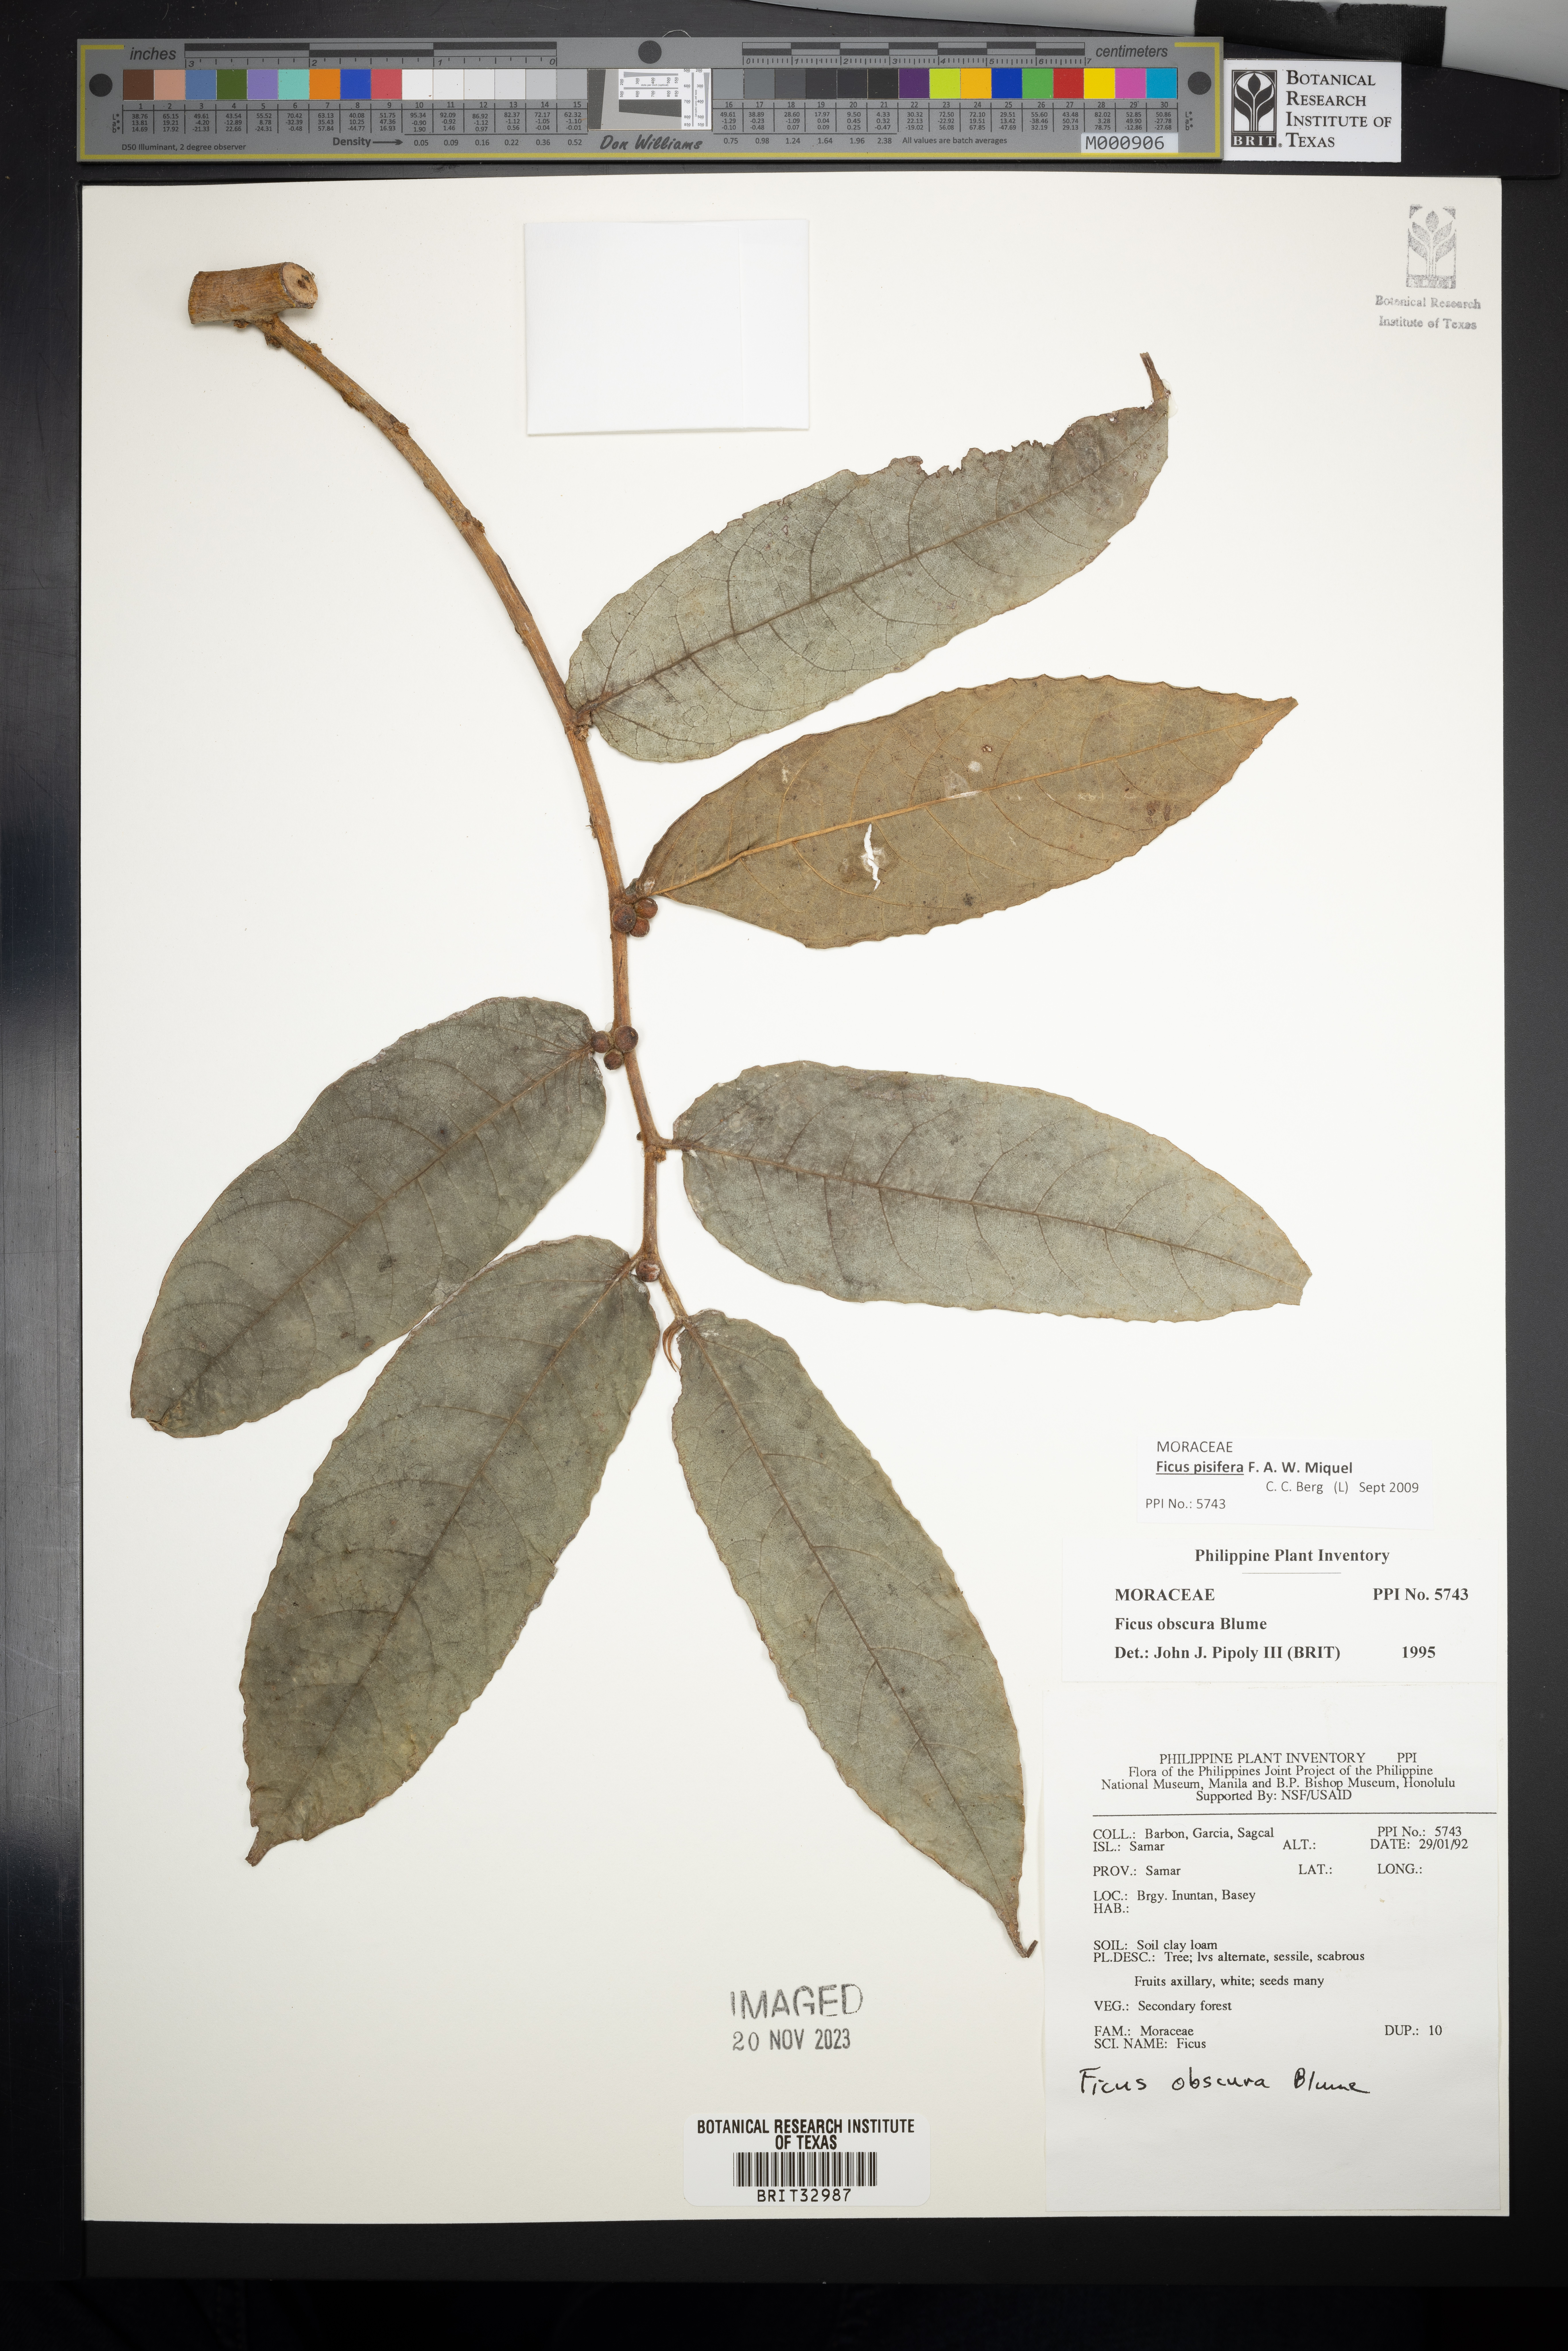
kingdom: Plantae
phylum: Tracheophyta
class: Magnoliopsida
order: Rosales
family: Moraceae
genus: Ficus
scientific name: Ficus obscura
